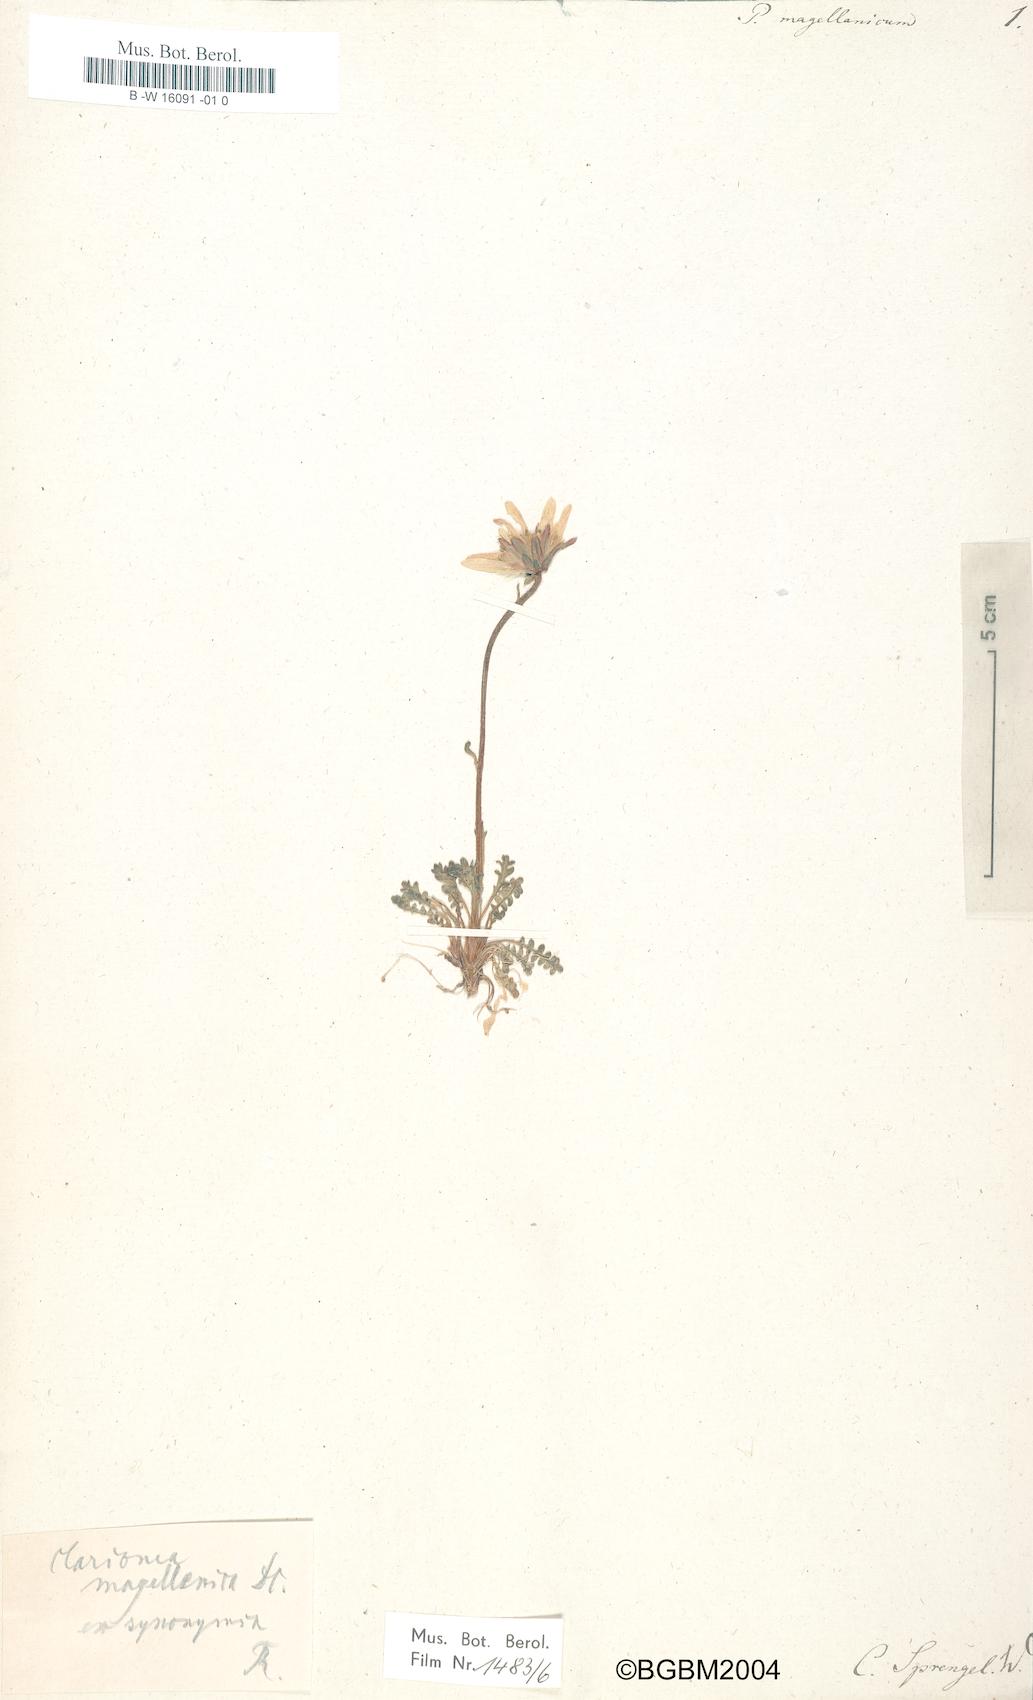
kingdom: Plantae
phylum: Tracheophyta
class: Magnoliopsida
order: Asterales
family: Asteraceae
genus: Perezia
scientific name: Perezia magellanica
